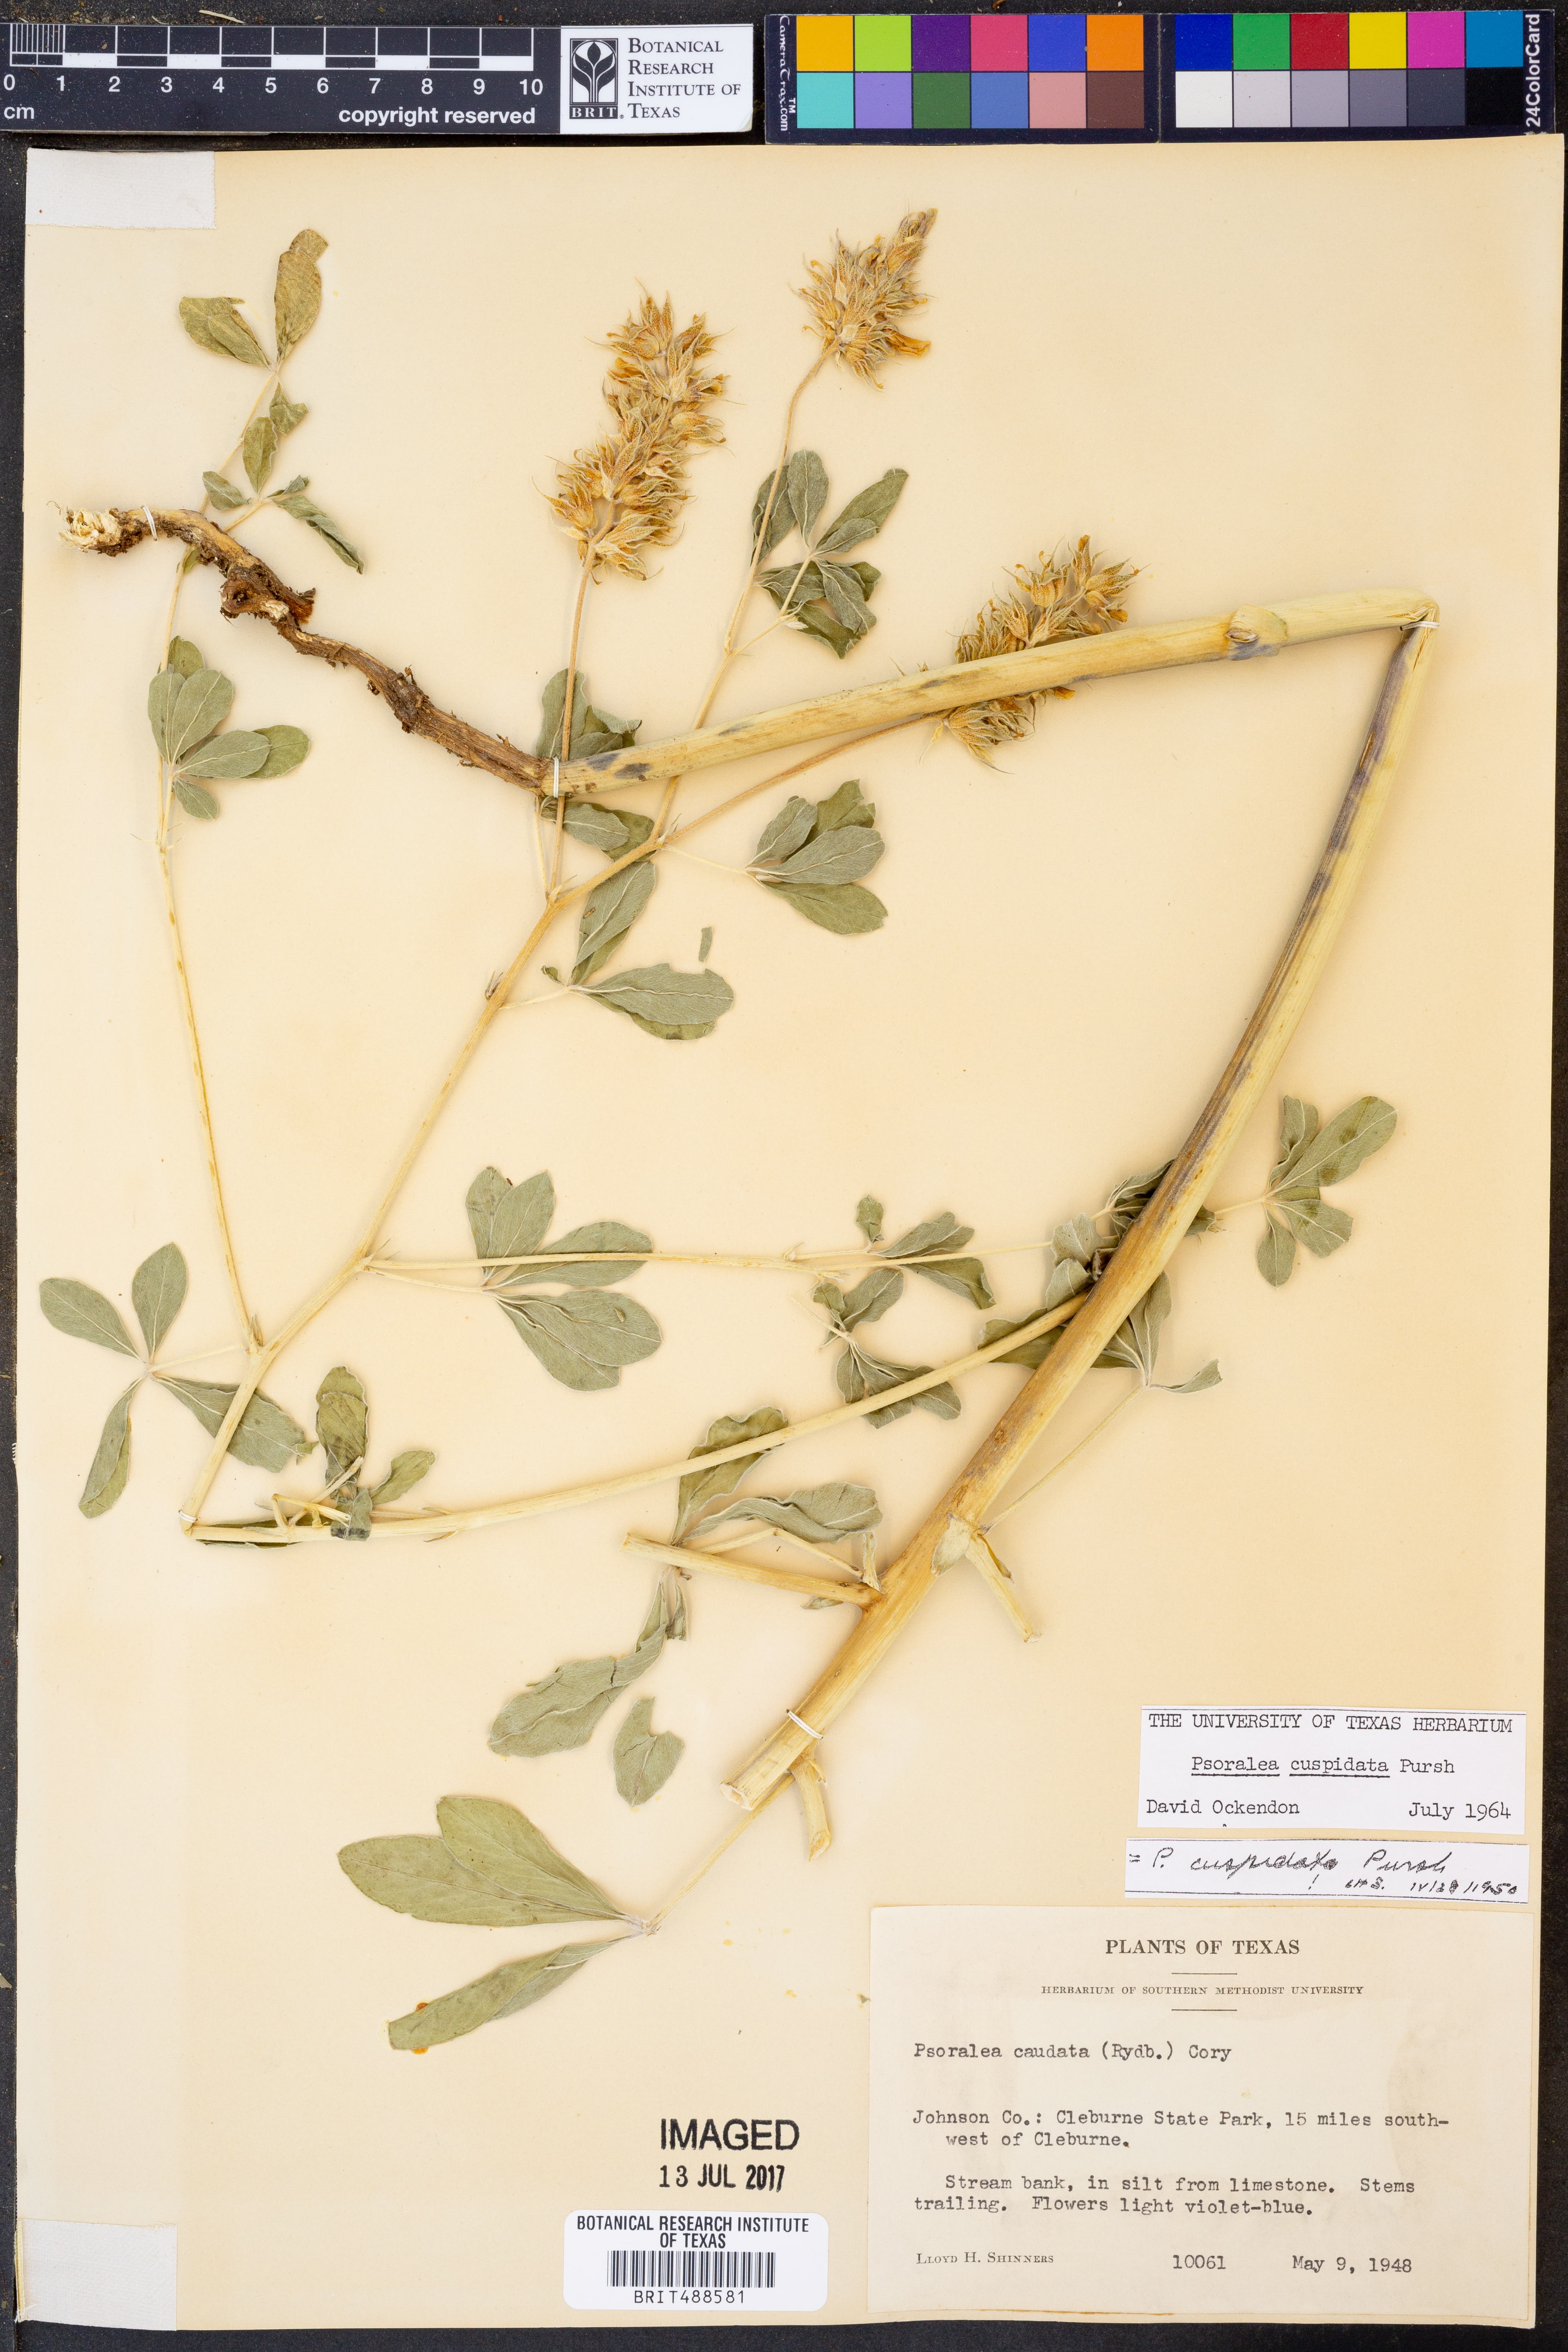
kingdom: Plantae
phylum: Tracheophyta
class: Magnoliopsida
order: Fabales
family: Fabaceae
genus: Pediomelum
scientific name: Pediomelum cuspidatum
